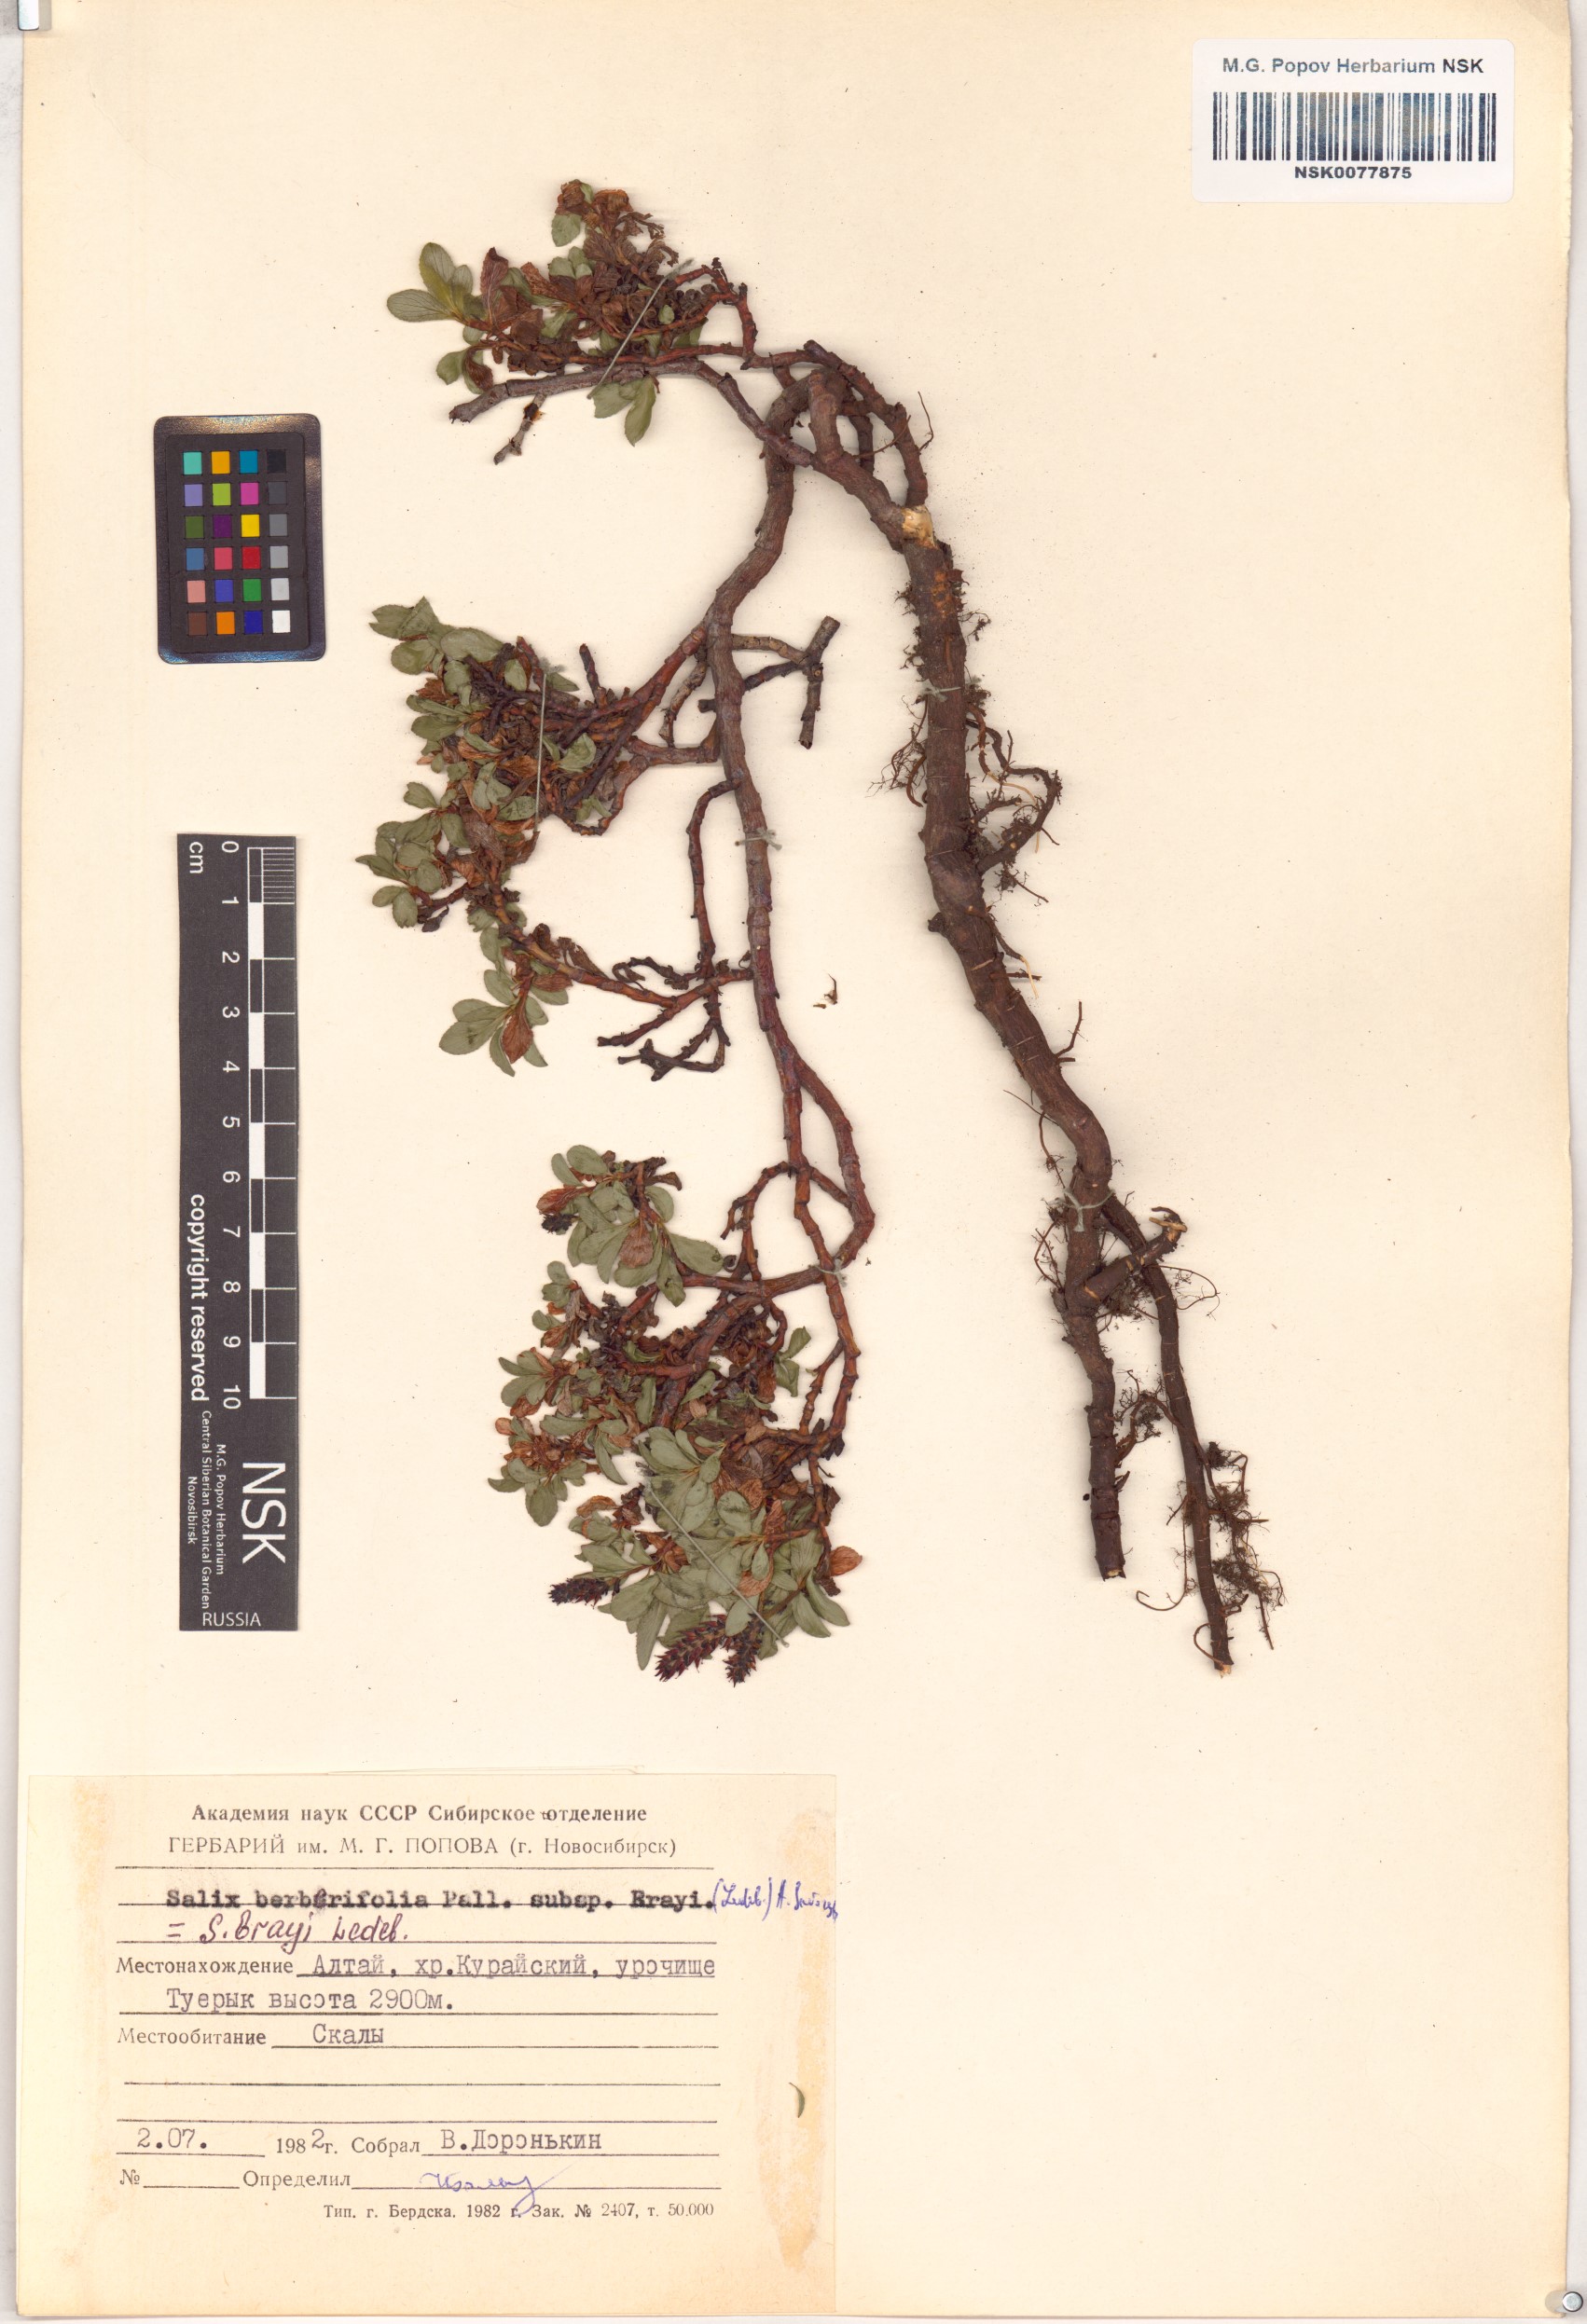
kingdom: Plantae
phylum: Tracheophyta
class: Magnoliopsida
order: Malpighiales
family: Salicaceae
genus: Salix
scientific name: Salix berberifolia
